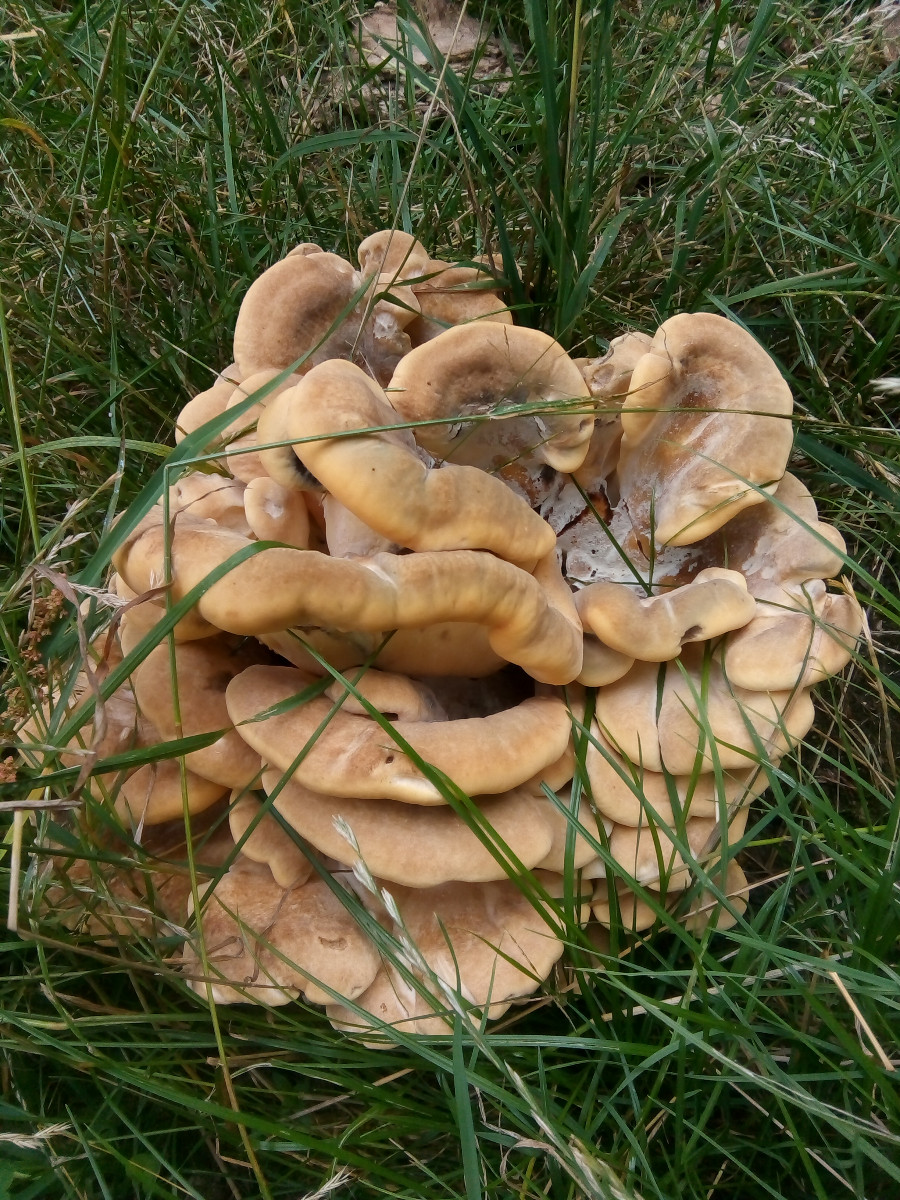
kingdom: Fungi
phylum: Basidiomycota
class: Agaricomycetes
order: Polyporales
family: Meripilaceae
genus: Meripilus
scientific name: Meripilus giganteus
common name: kæmpeporesvamp
